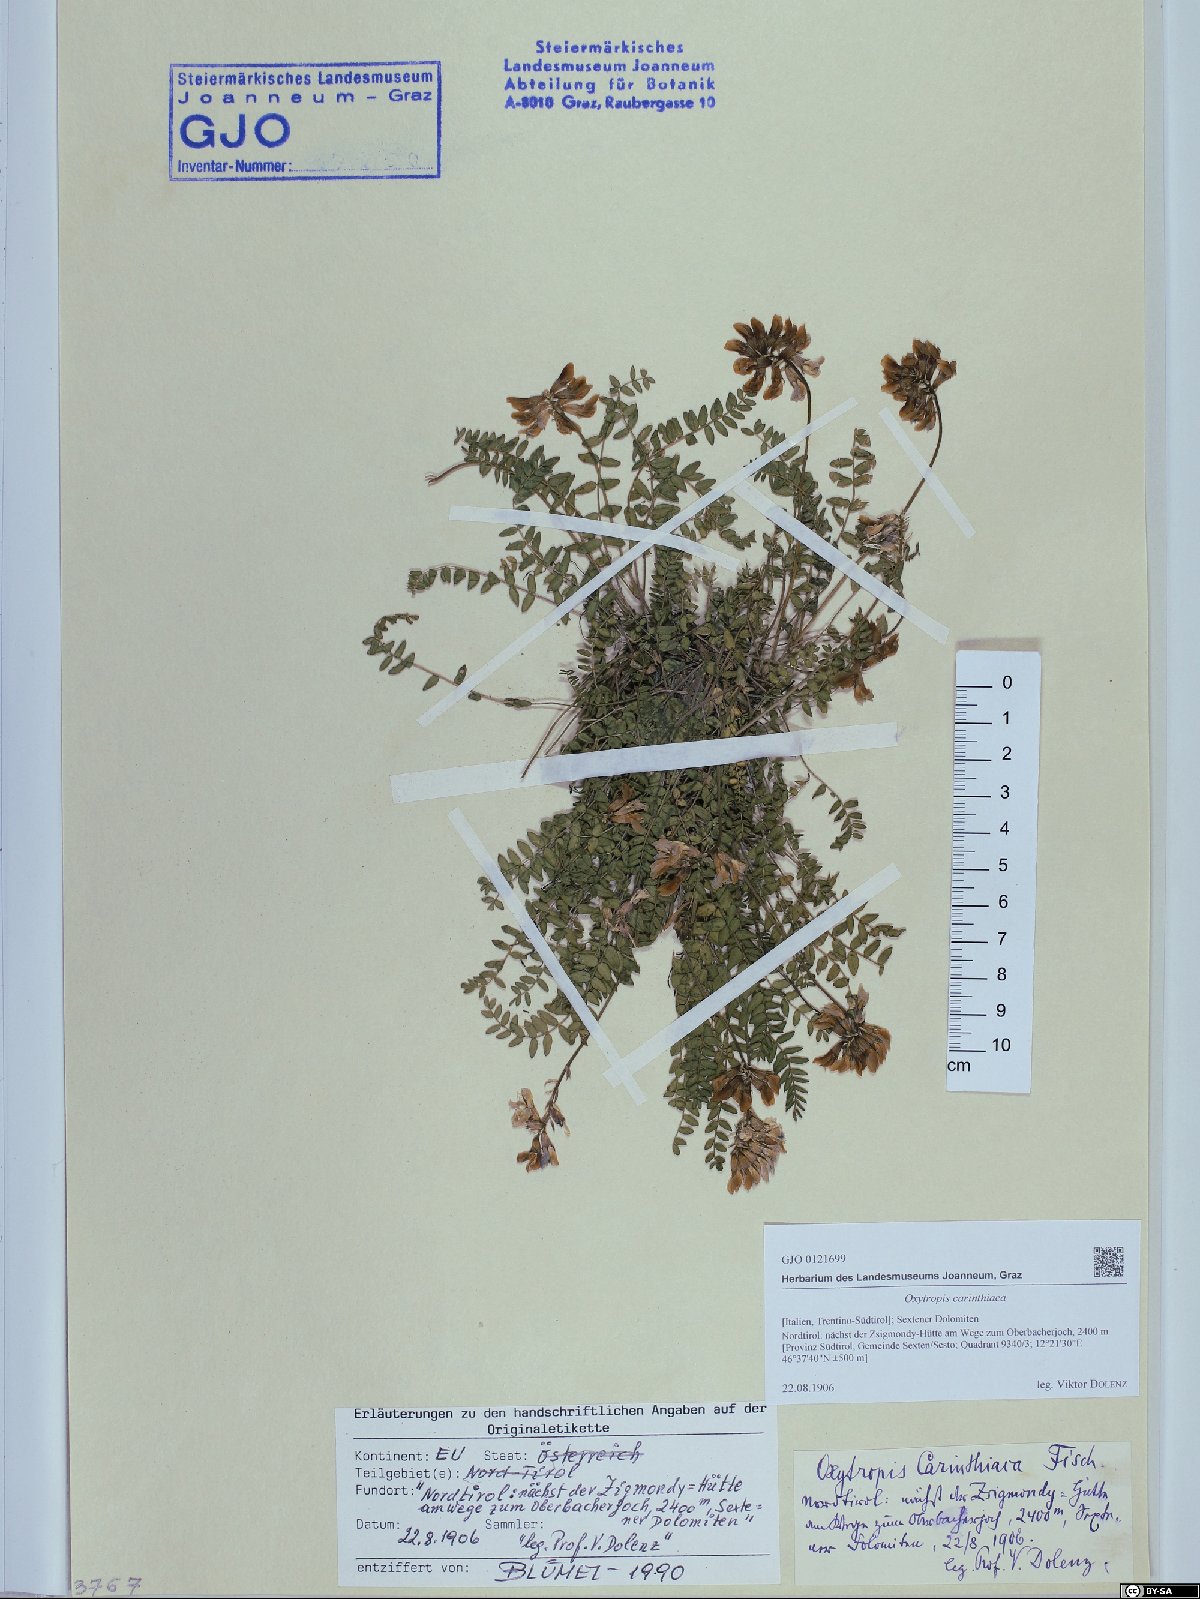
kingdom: Plantae
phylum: Tracheophyta
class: Magnoliopsida
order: Fabales
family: Fabaceae
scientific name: Fabaceae
